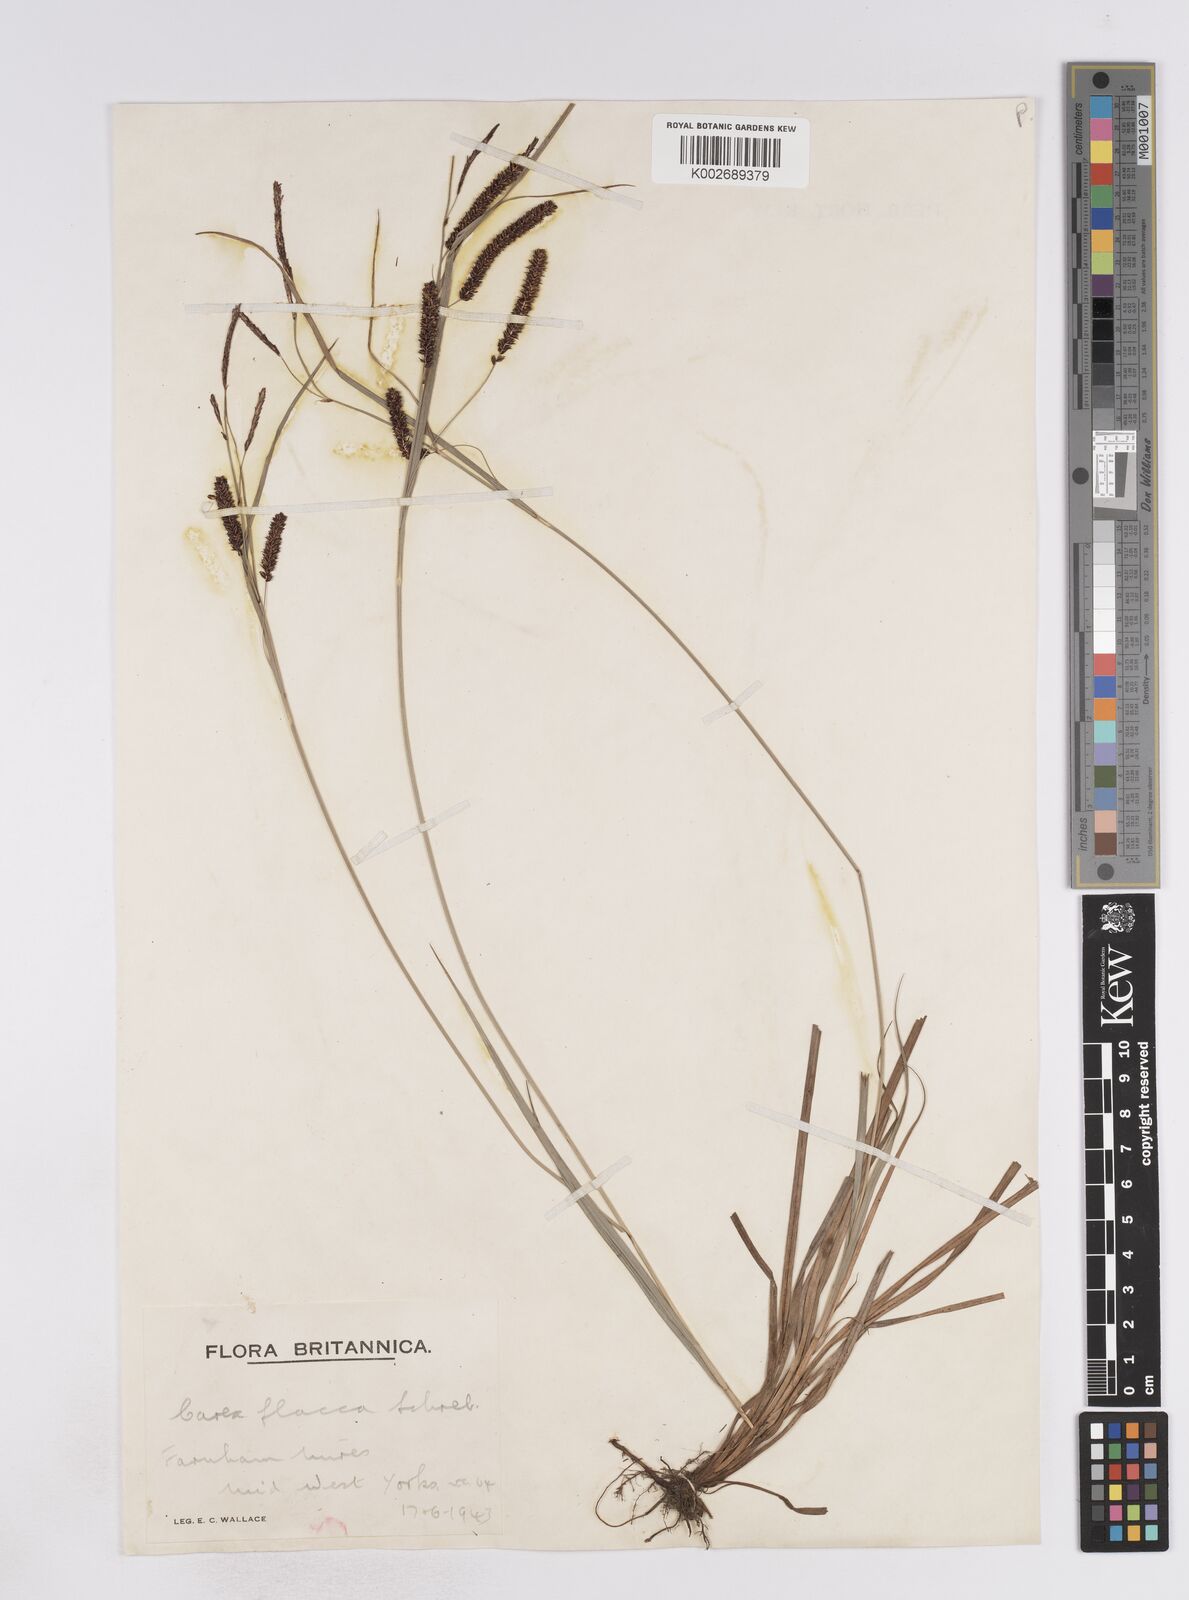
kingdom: Plantae
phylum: Tracheophyta
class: Liliopsida
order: Poales
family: Cyperaceae
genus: Carex
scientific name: Carex flacca
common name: Glaucous sedge
